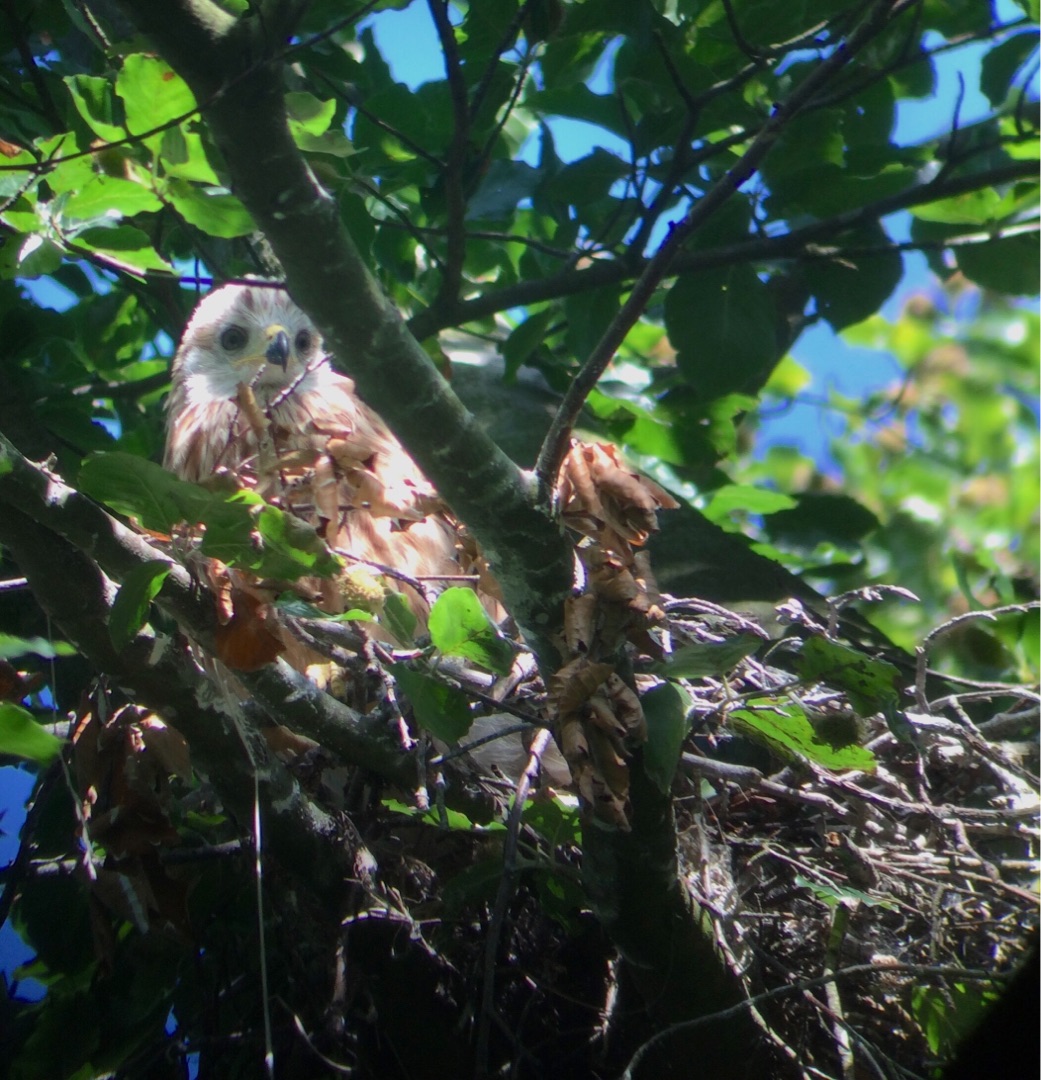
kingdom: Animalia
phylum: Chordata
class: Aves
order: Accipitriformes
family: Accipitridae
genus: Milvus
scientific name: Milvus milvus
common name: Rød glente
